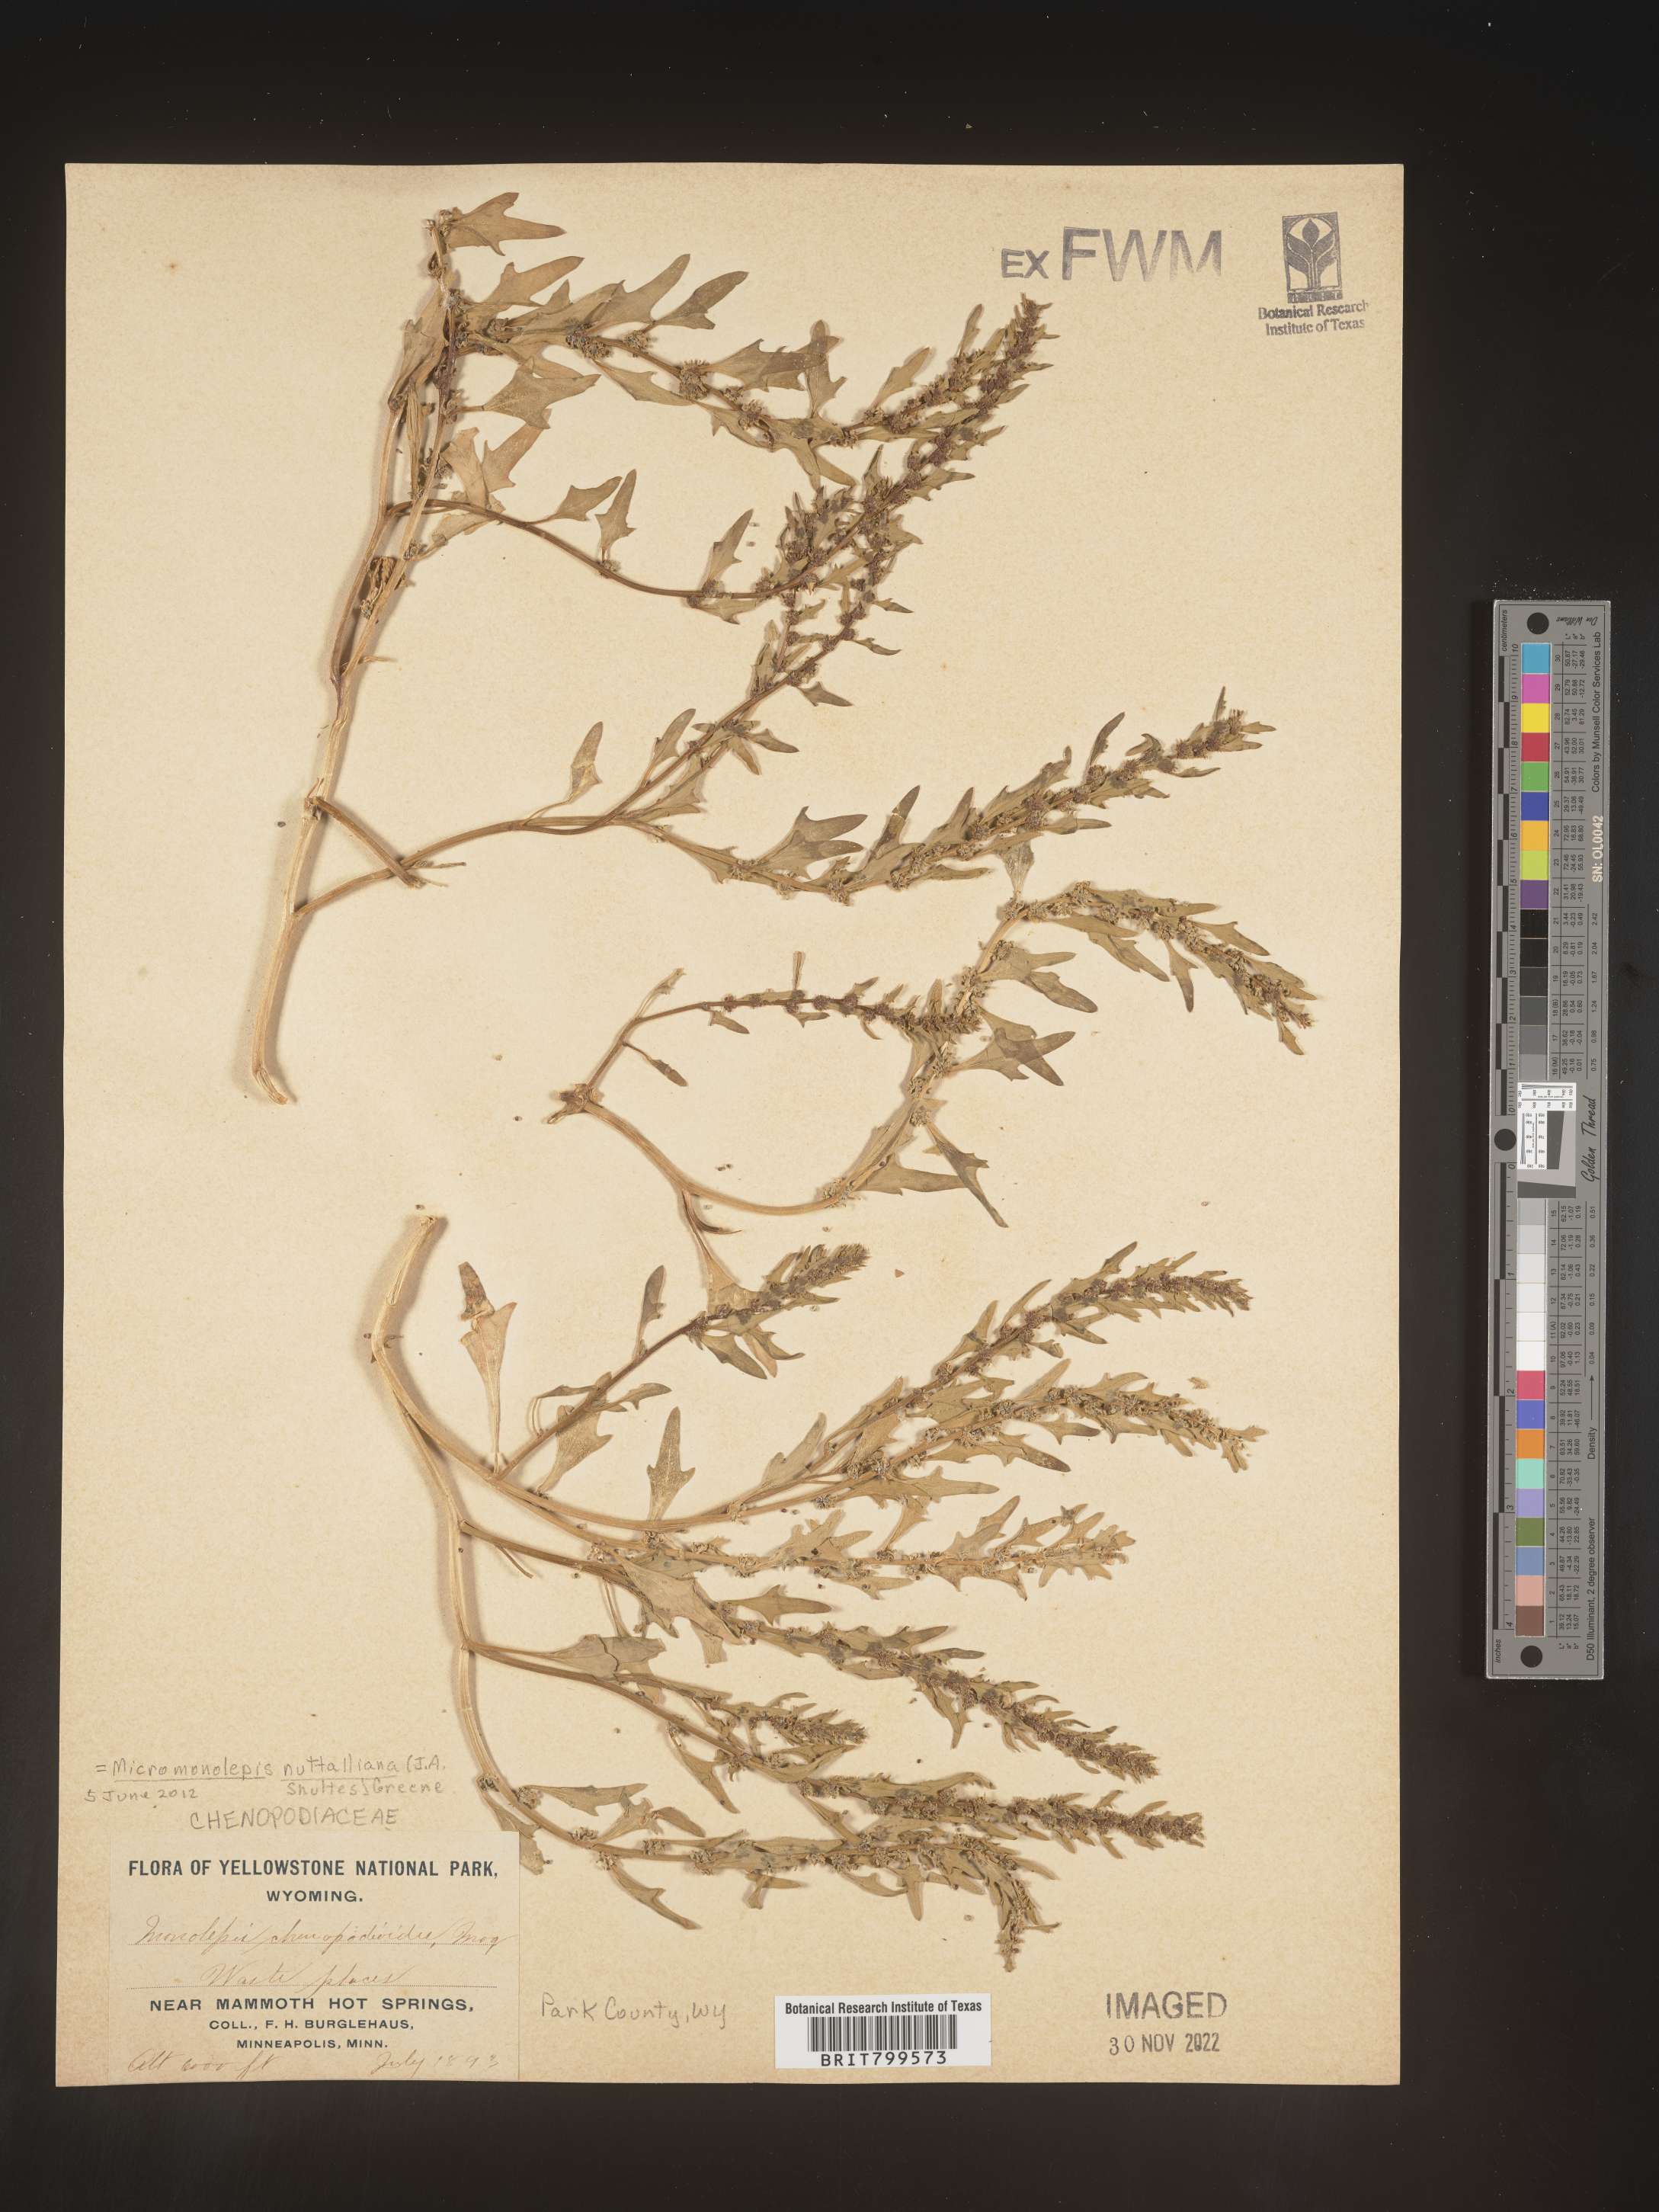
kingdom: Plantae
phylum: Tracheophyta
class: Magnoliopsida
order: Caryophyllales
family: Amaranthaceae
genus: Blitum
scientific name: Blitum
